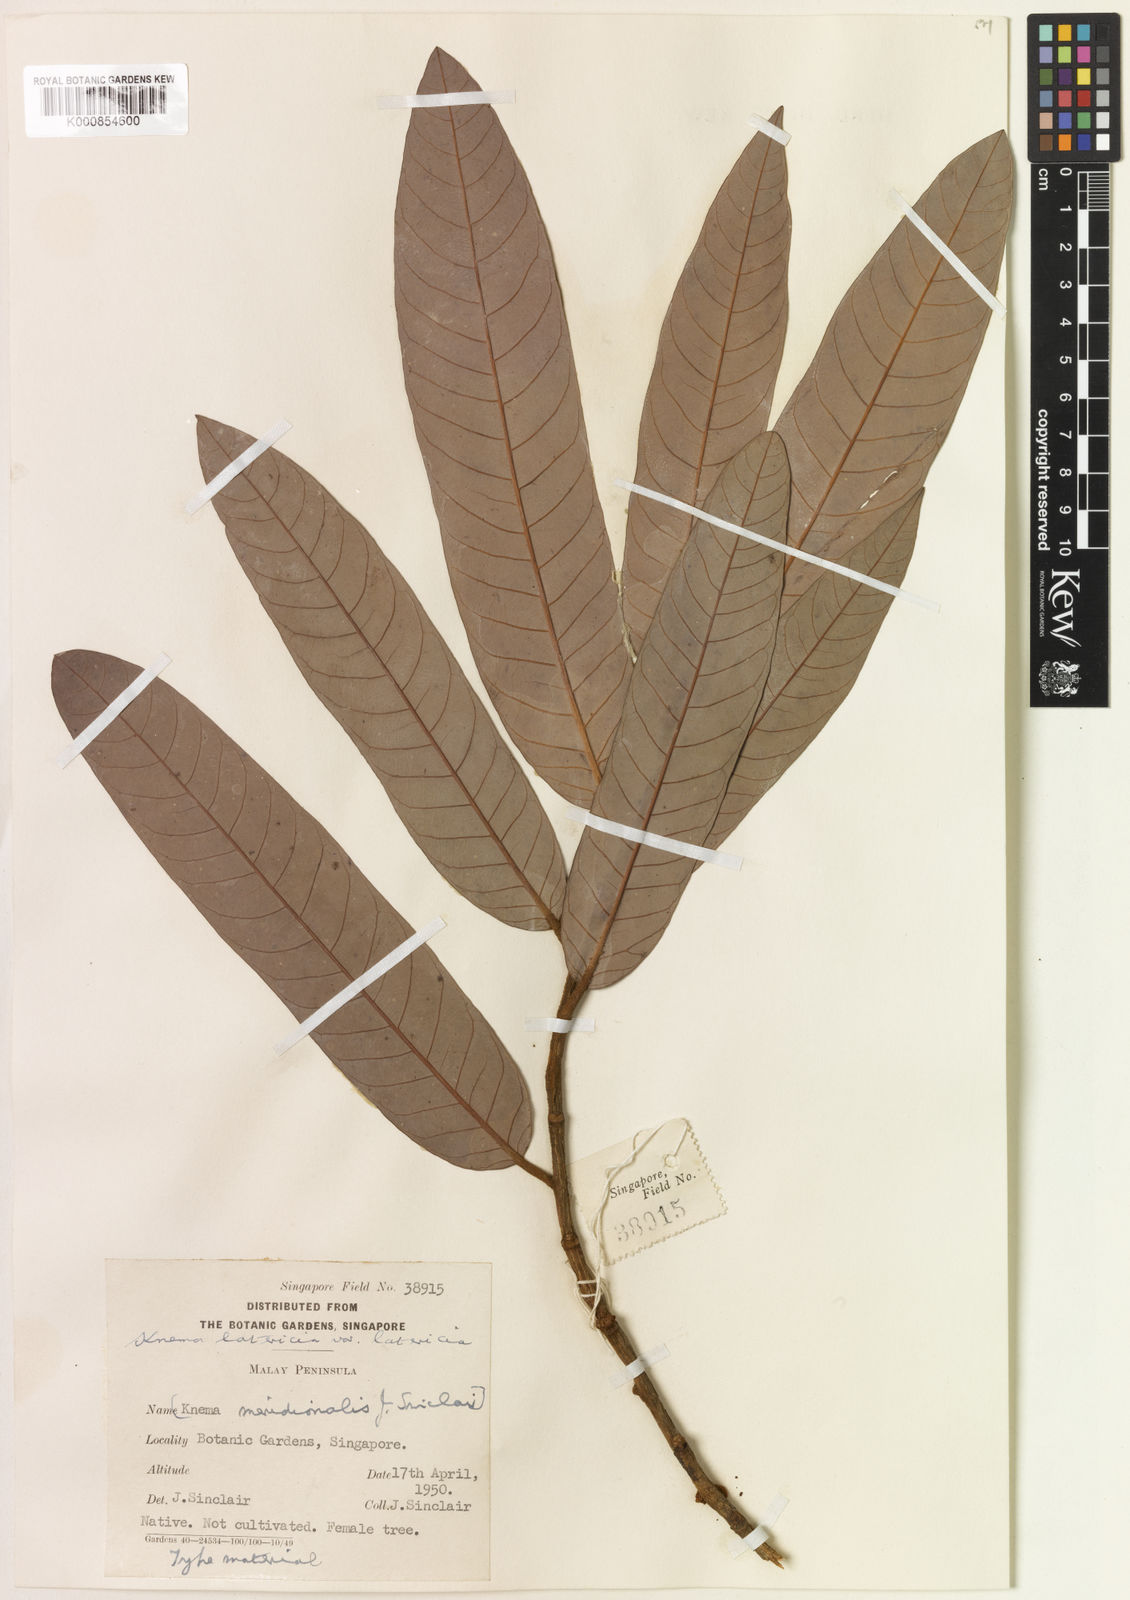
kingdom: Plantae
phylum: Tracheophyta
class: Magnoliopsida
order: Magnoliales
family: Myristicaceae
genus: Knema
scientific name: Knema latericia
